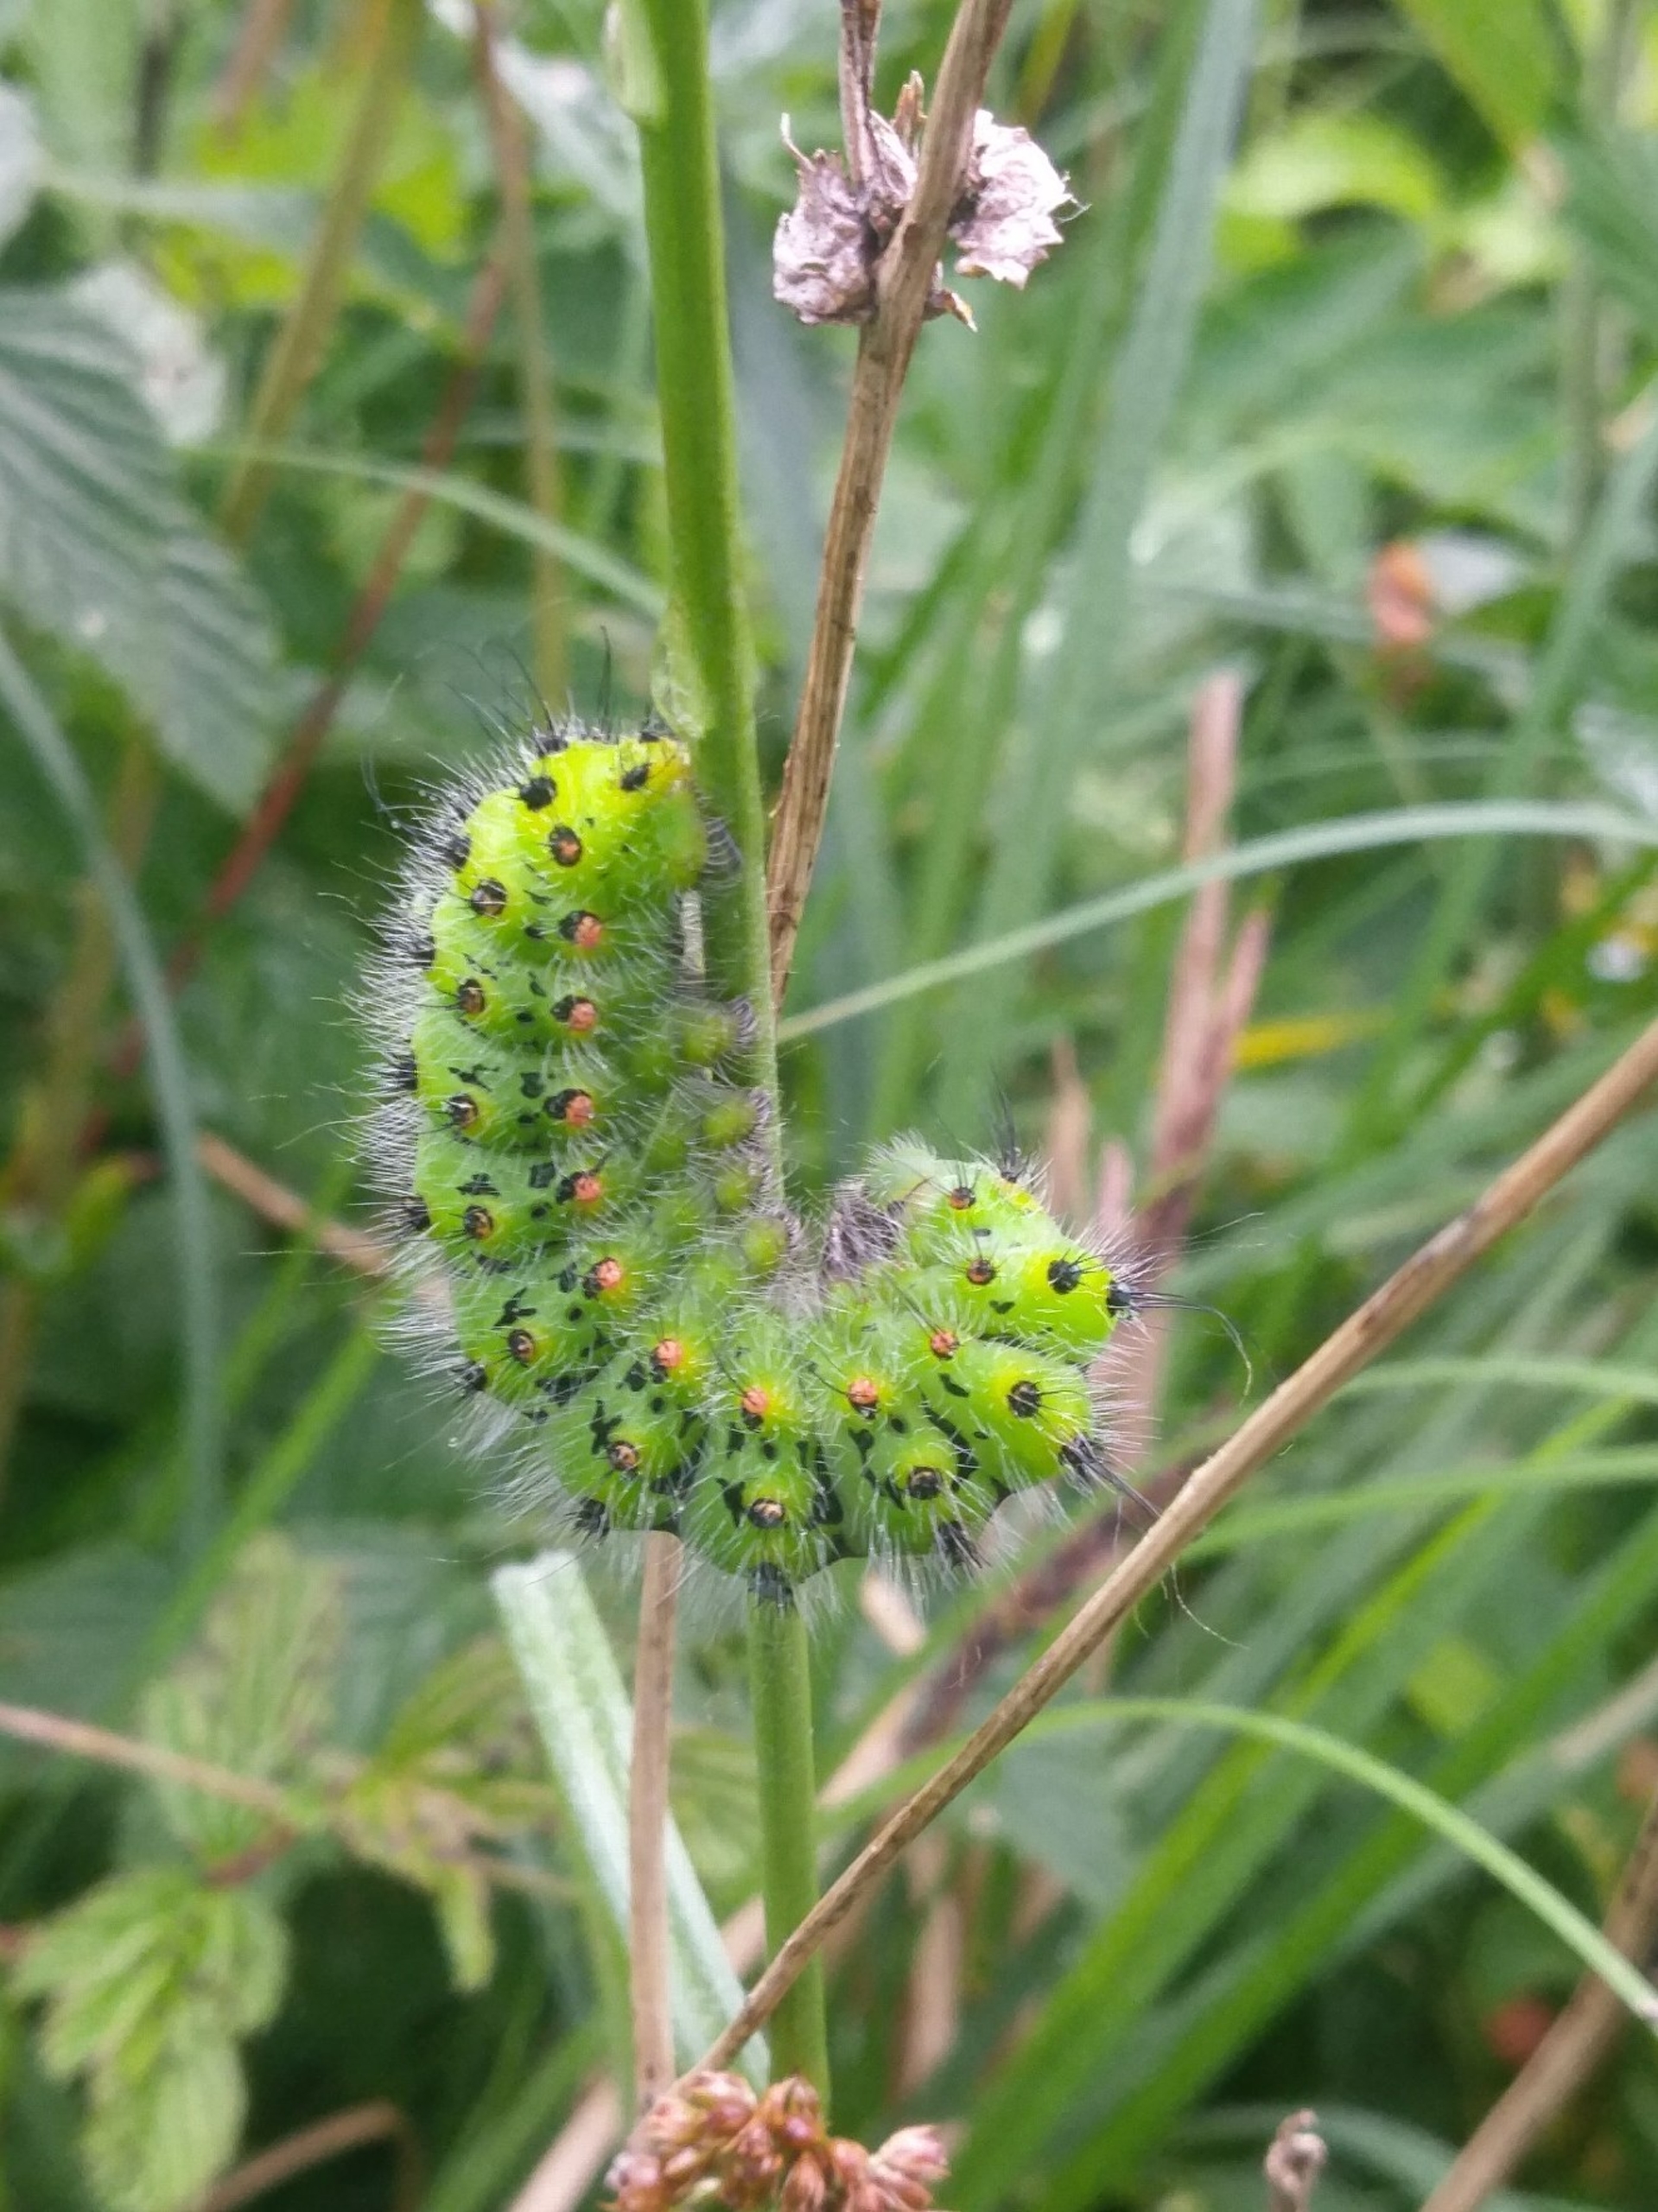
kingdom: Animalia
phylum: Arthropoda
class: Insecta
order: Lepidoptera
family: Saturniidae
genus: Saturnia
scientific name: Saturnia pavonia
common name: Lille natpåfugleøje
